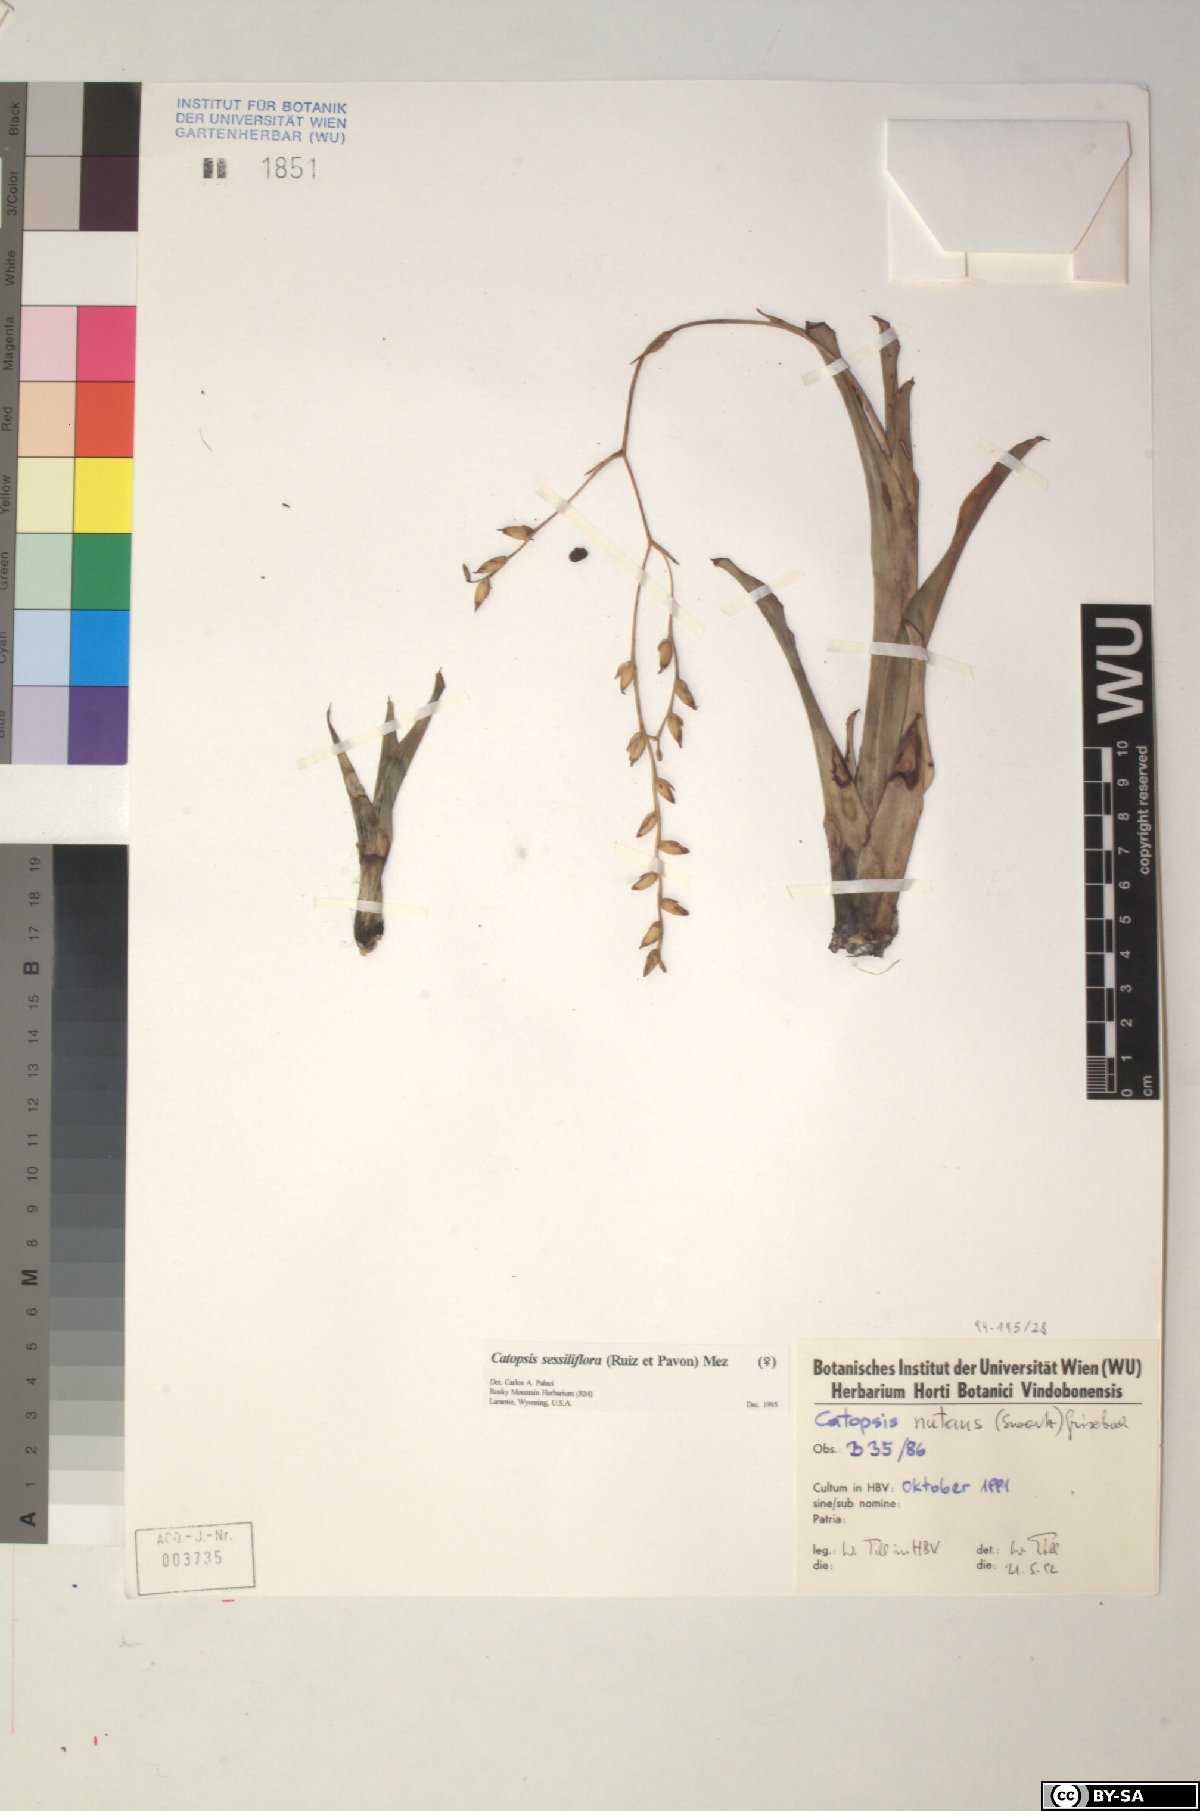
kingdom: Plantae
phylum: Tracheophyta
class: Liliopsida
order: Poales
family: Bromeliaceae
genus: Catopsis
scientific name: Catopsis
